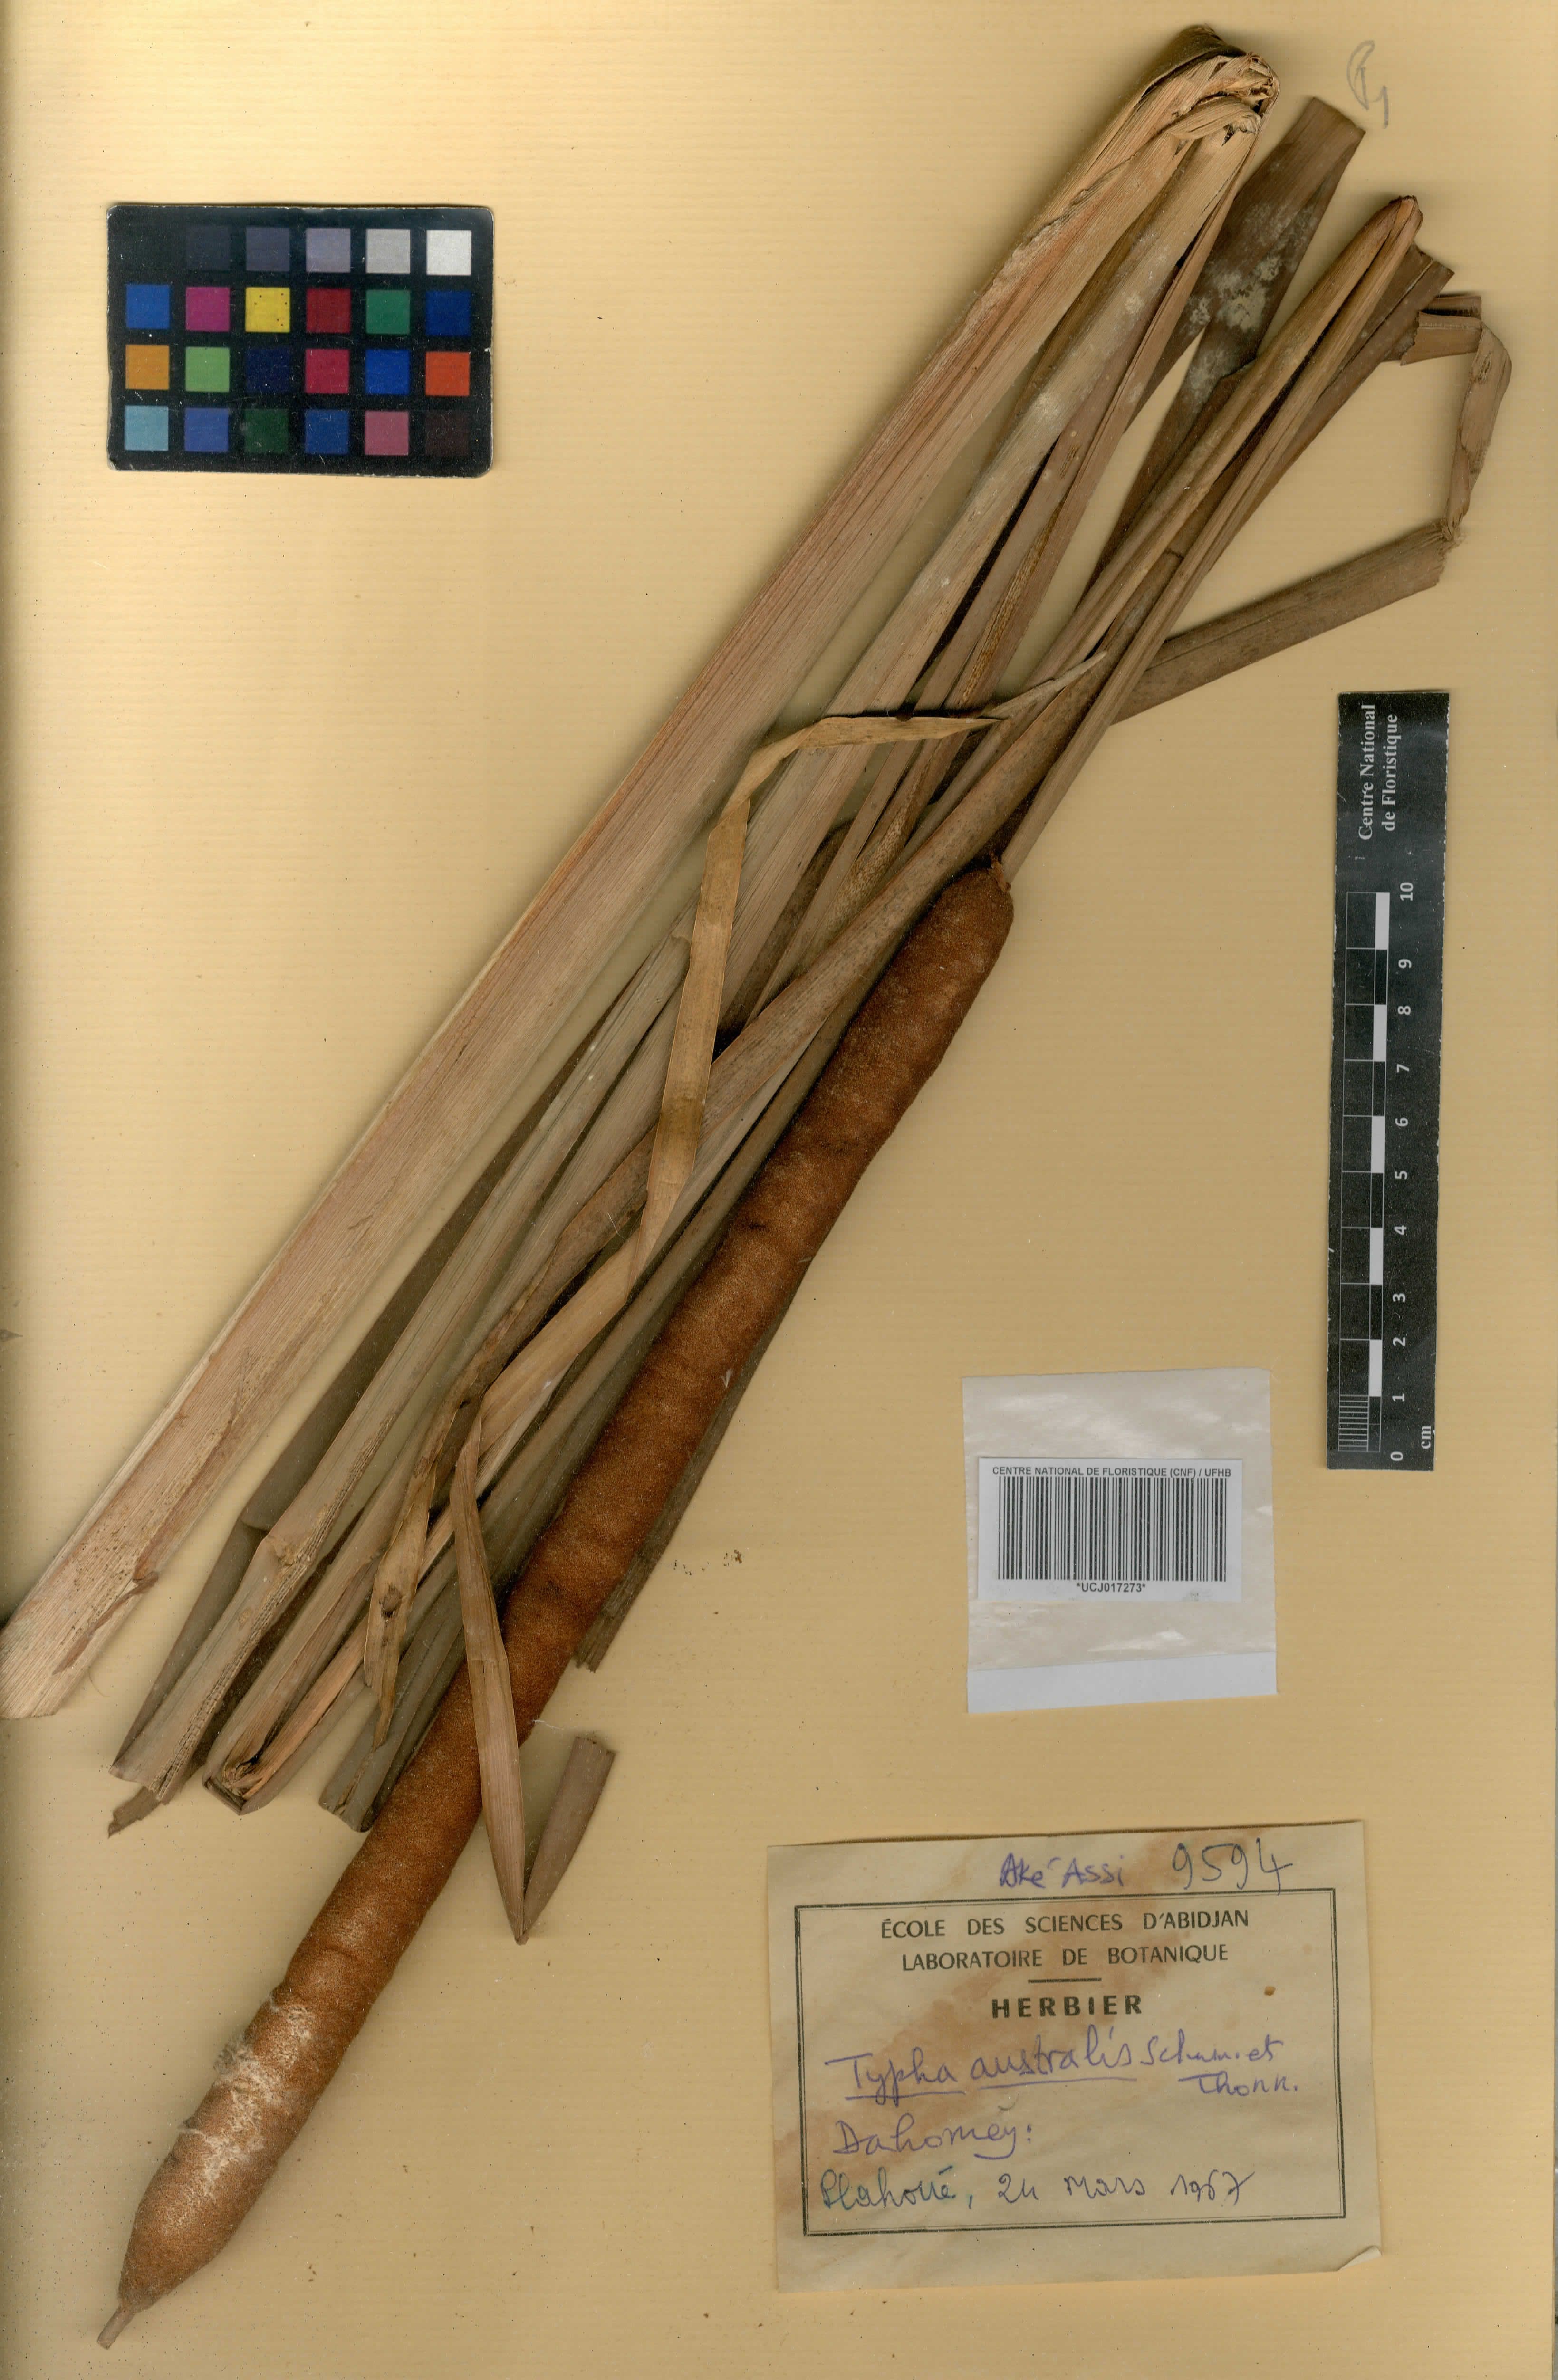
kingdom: Plantae
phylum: Tracheophyta
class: Liliopsida
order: Poales
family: Typhaceae
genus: Typha
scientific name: Typha domingensis
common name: Southern cattail
